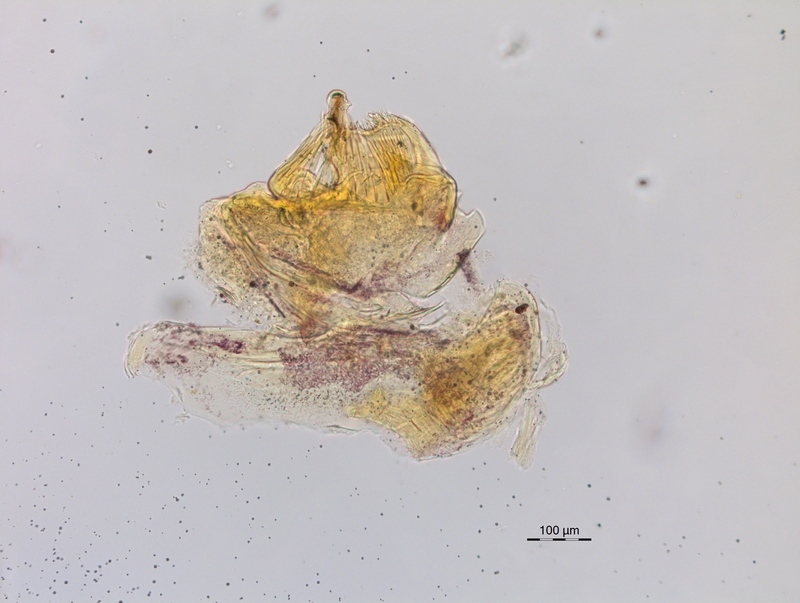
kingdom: Animalia
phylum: Arthropoda
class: Diplopoda
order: Chordeumatida
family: Craspedosomatidae
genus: Craspedosoma
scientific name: Craspedosoma brentanum
